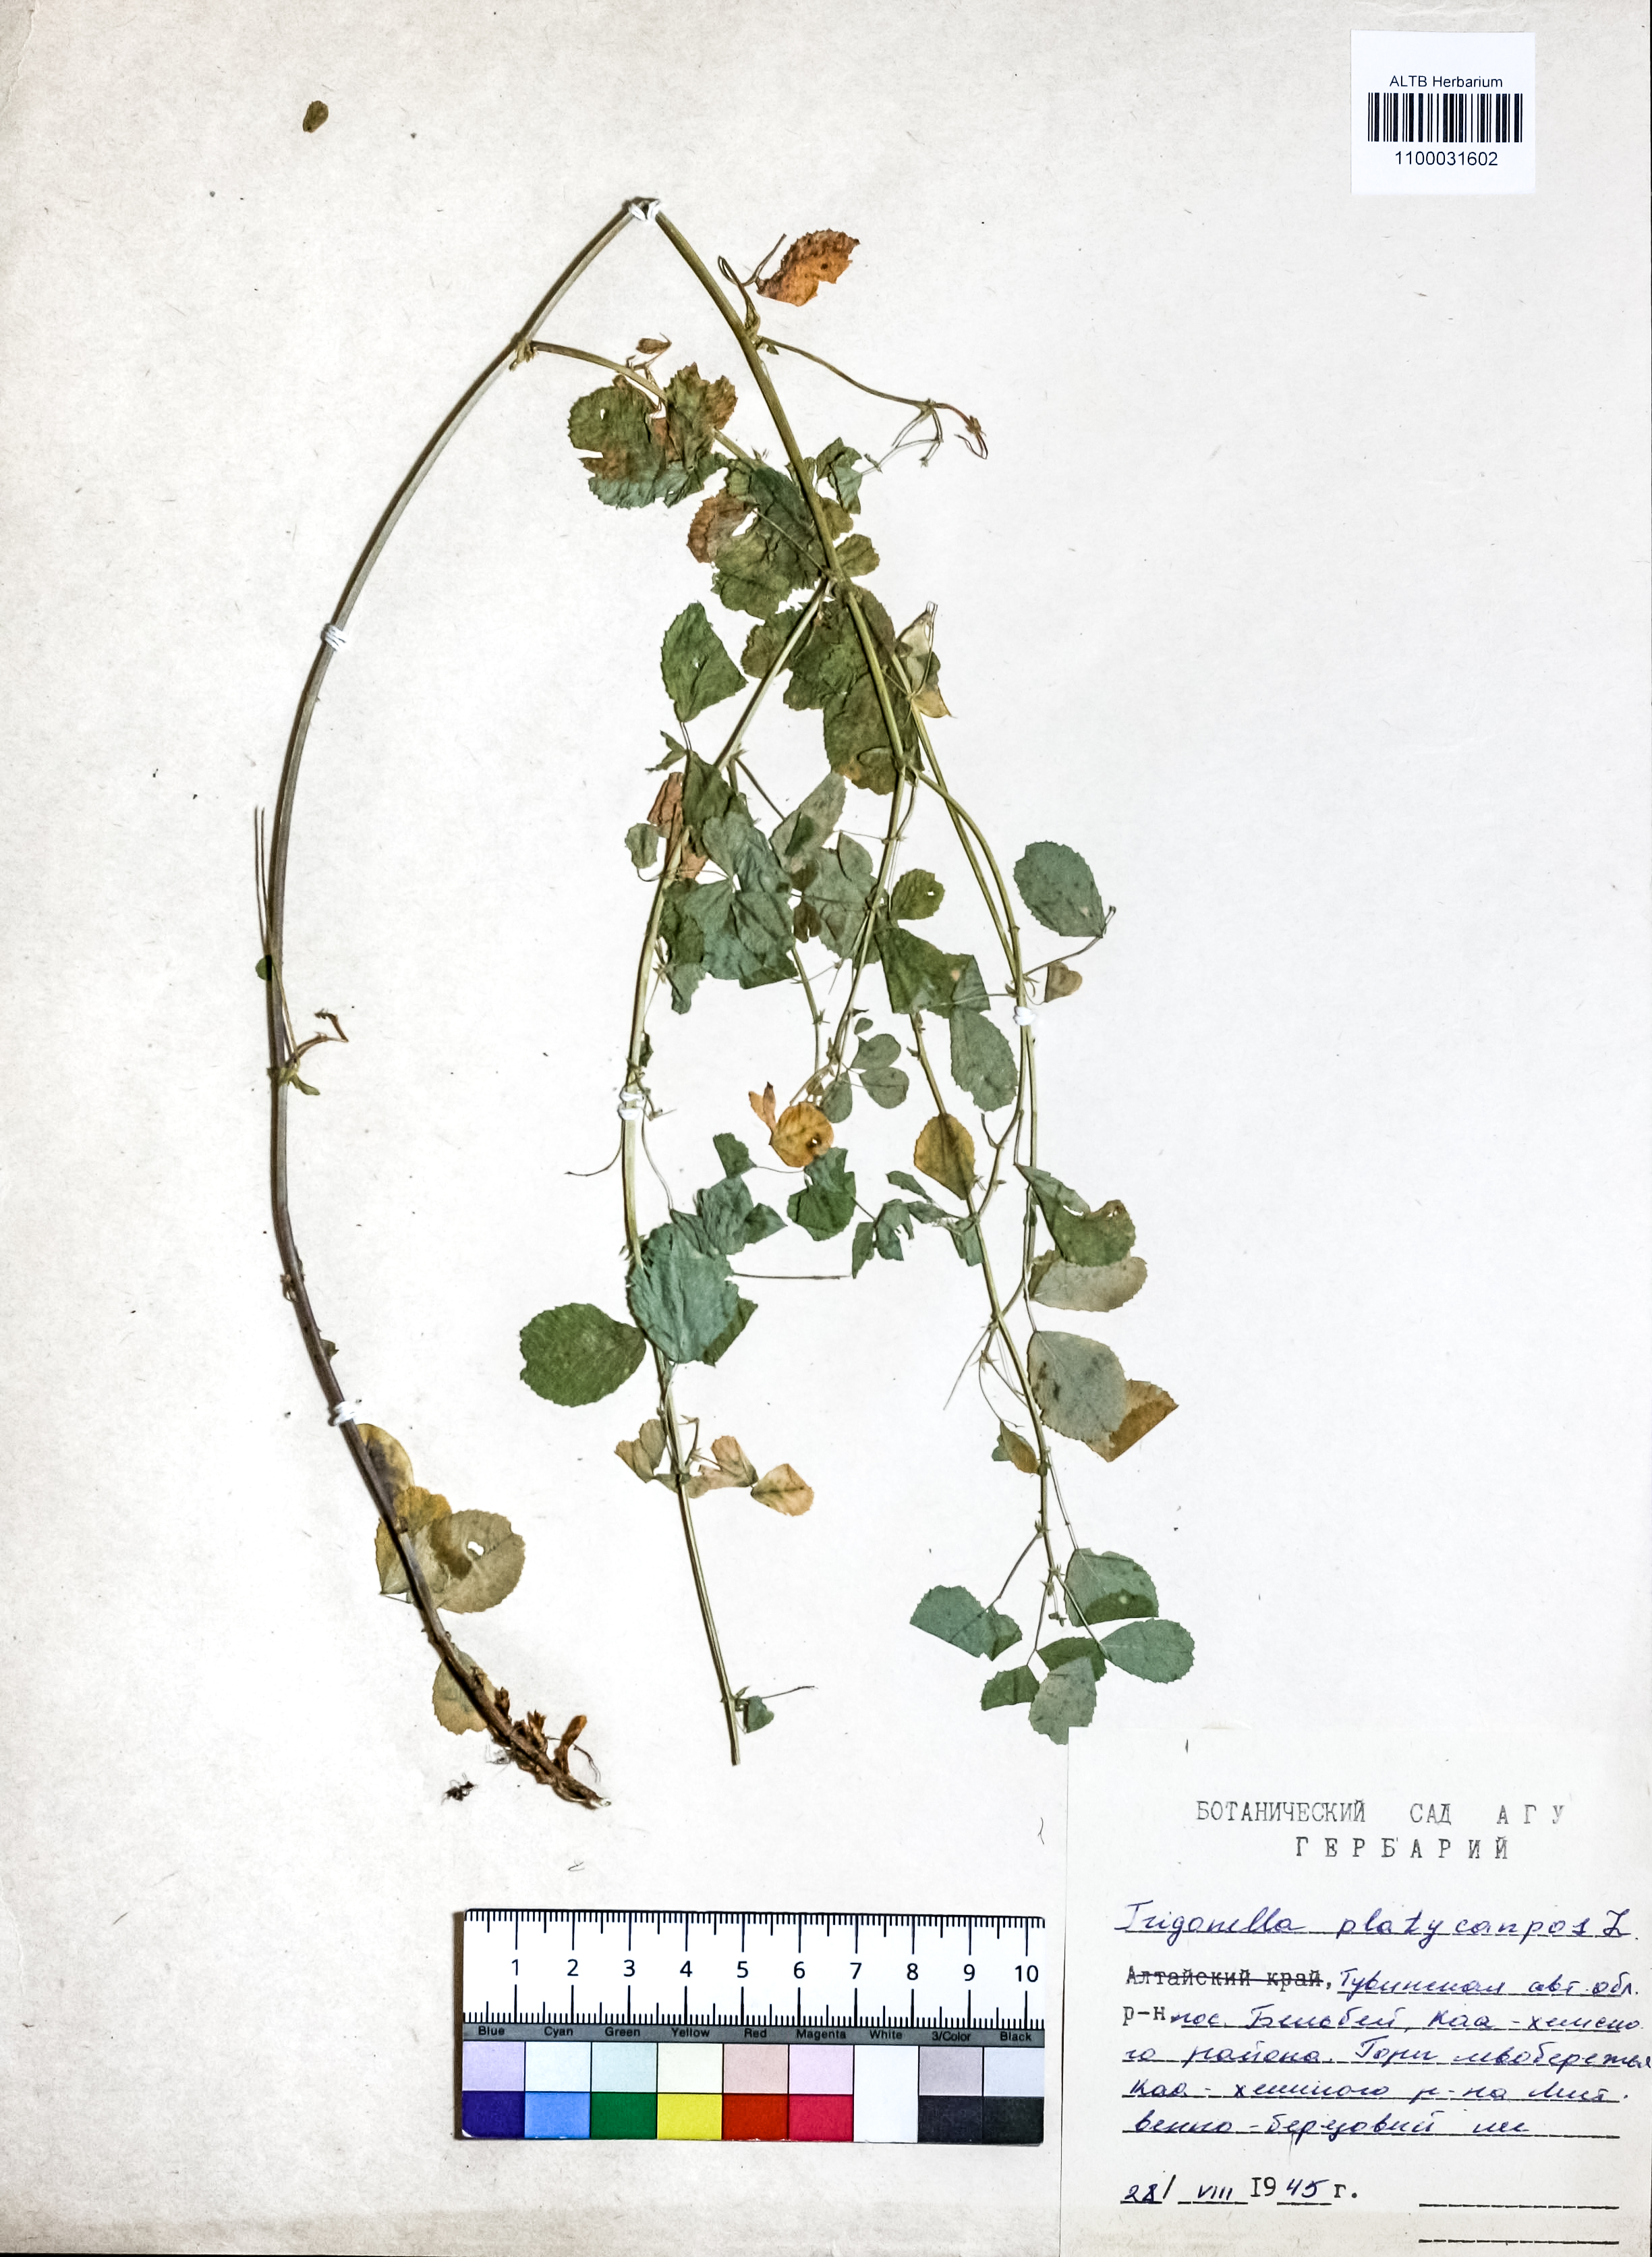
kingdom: Plantae
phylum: Tracheophyta
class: Magnoliopsida
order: Fabales
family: Fabaceae
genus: Medicago
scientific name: Medicago platycarpos
